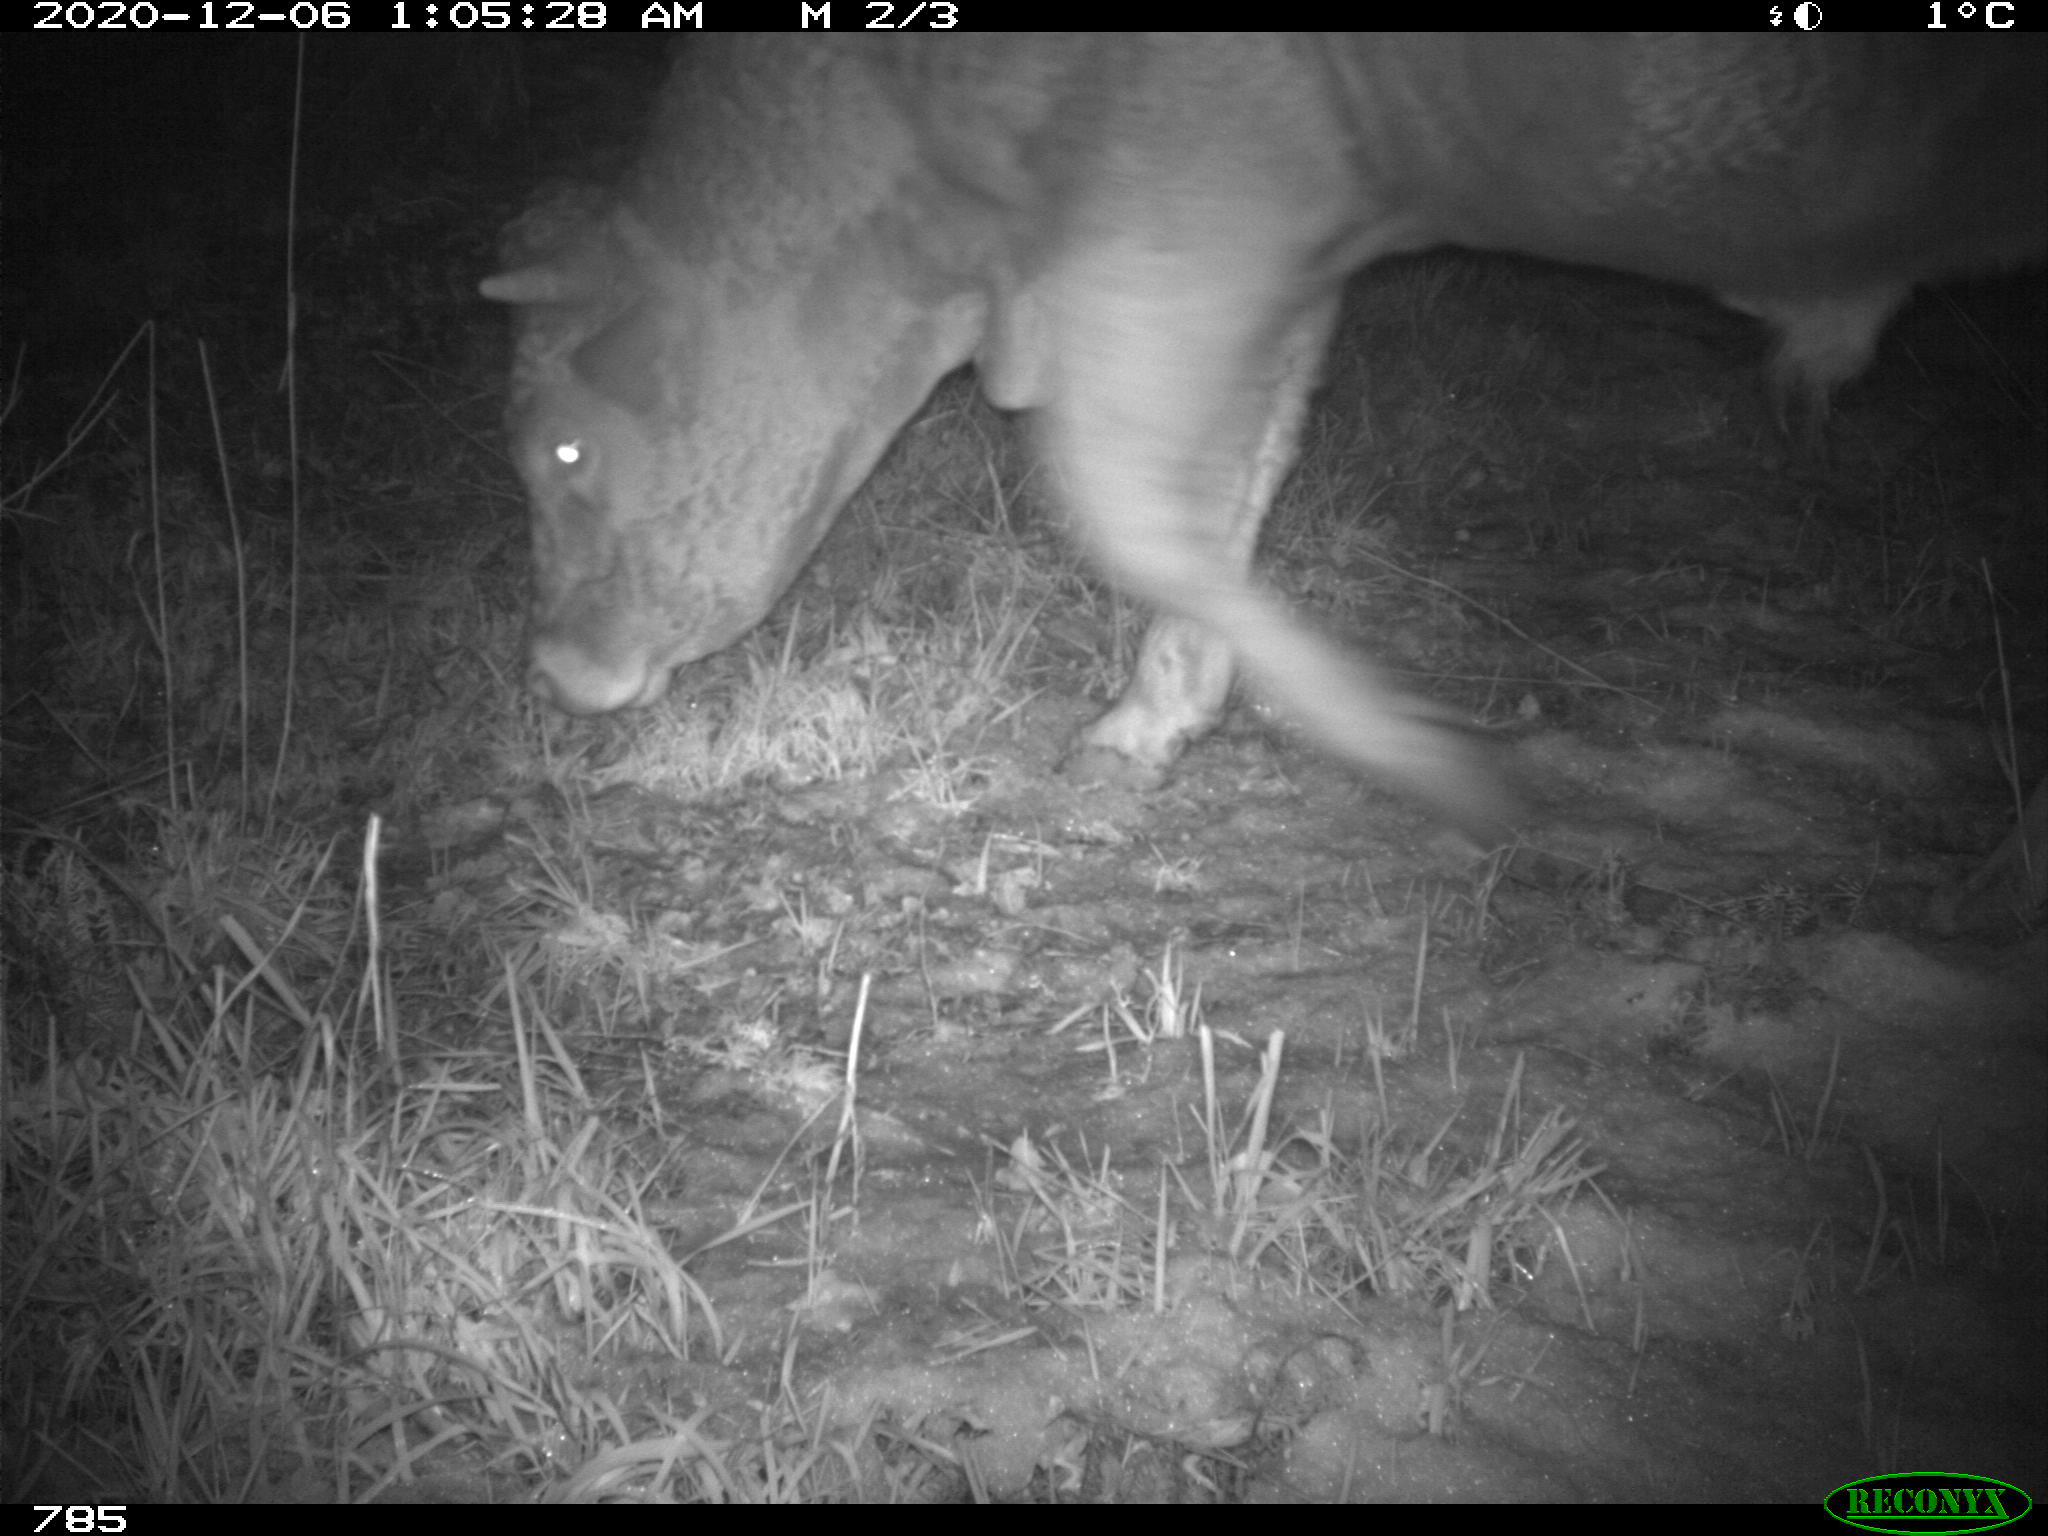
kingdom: Animalia
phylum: Chordata
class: Mammalia
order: Artiodactyla
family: Bovidae
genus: Bos
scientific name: Bos taurus
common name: Domesticated cattle
